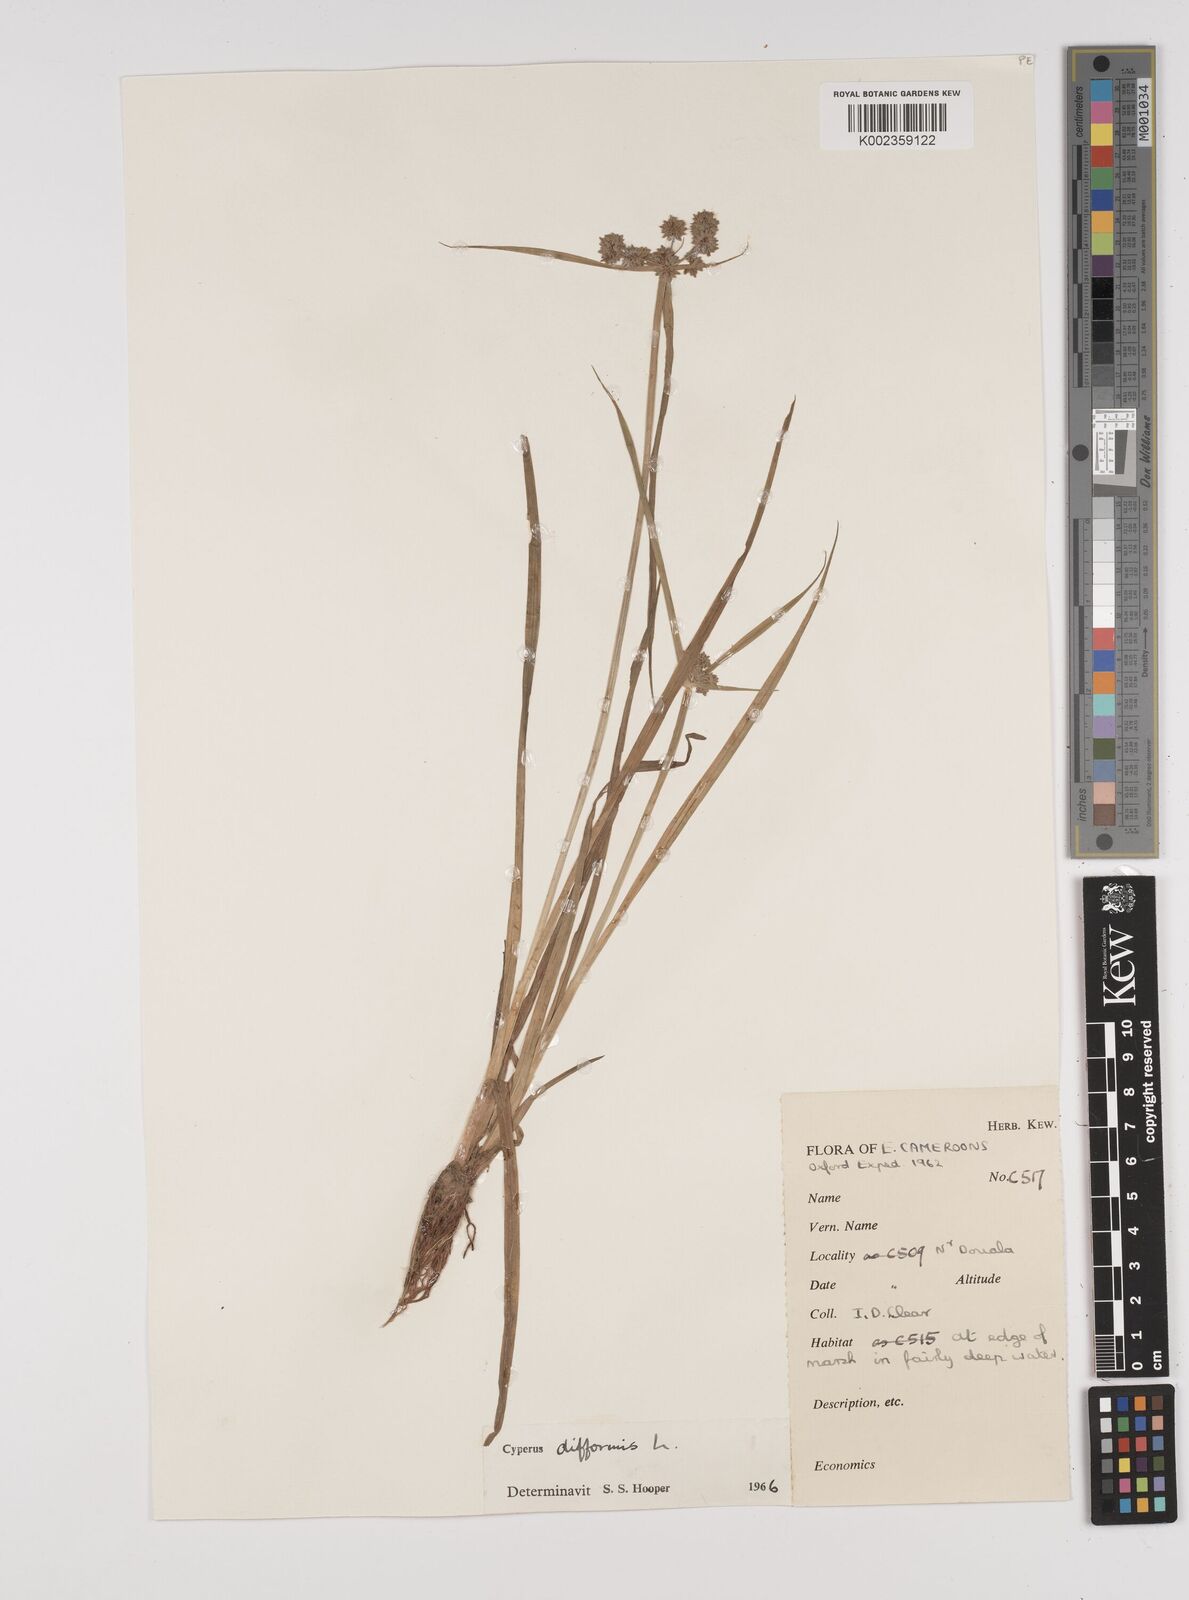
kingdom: Plantae
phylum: Tracheophyta
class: Liliopsida
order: Poales
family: Cyperaceae
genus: Cyperus
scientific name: Cyperus difformis
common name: Variable flatsedge
